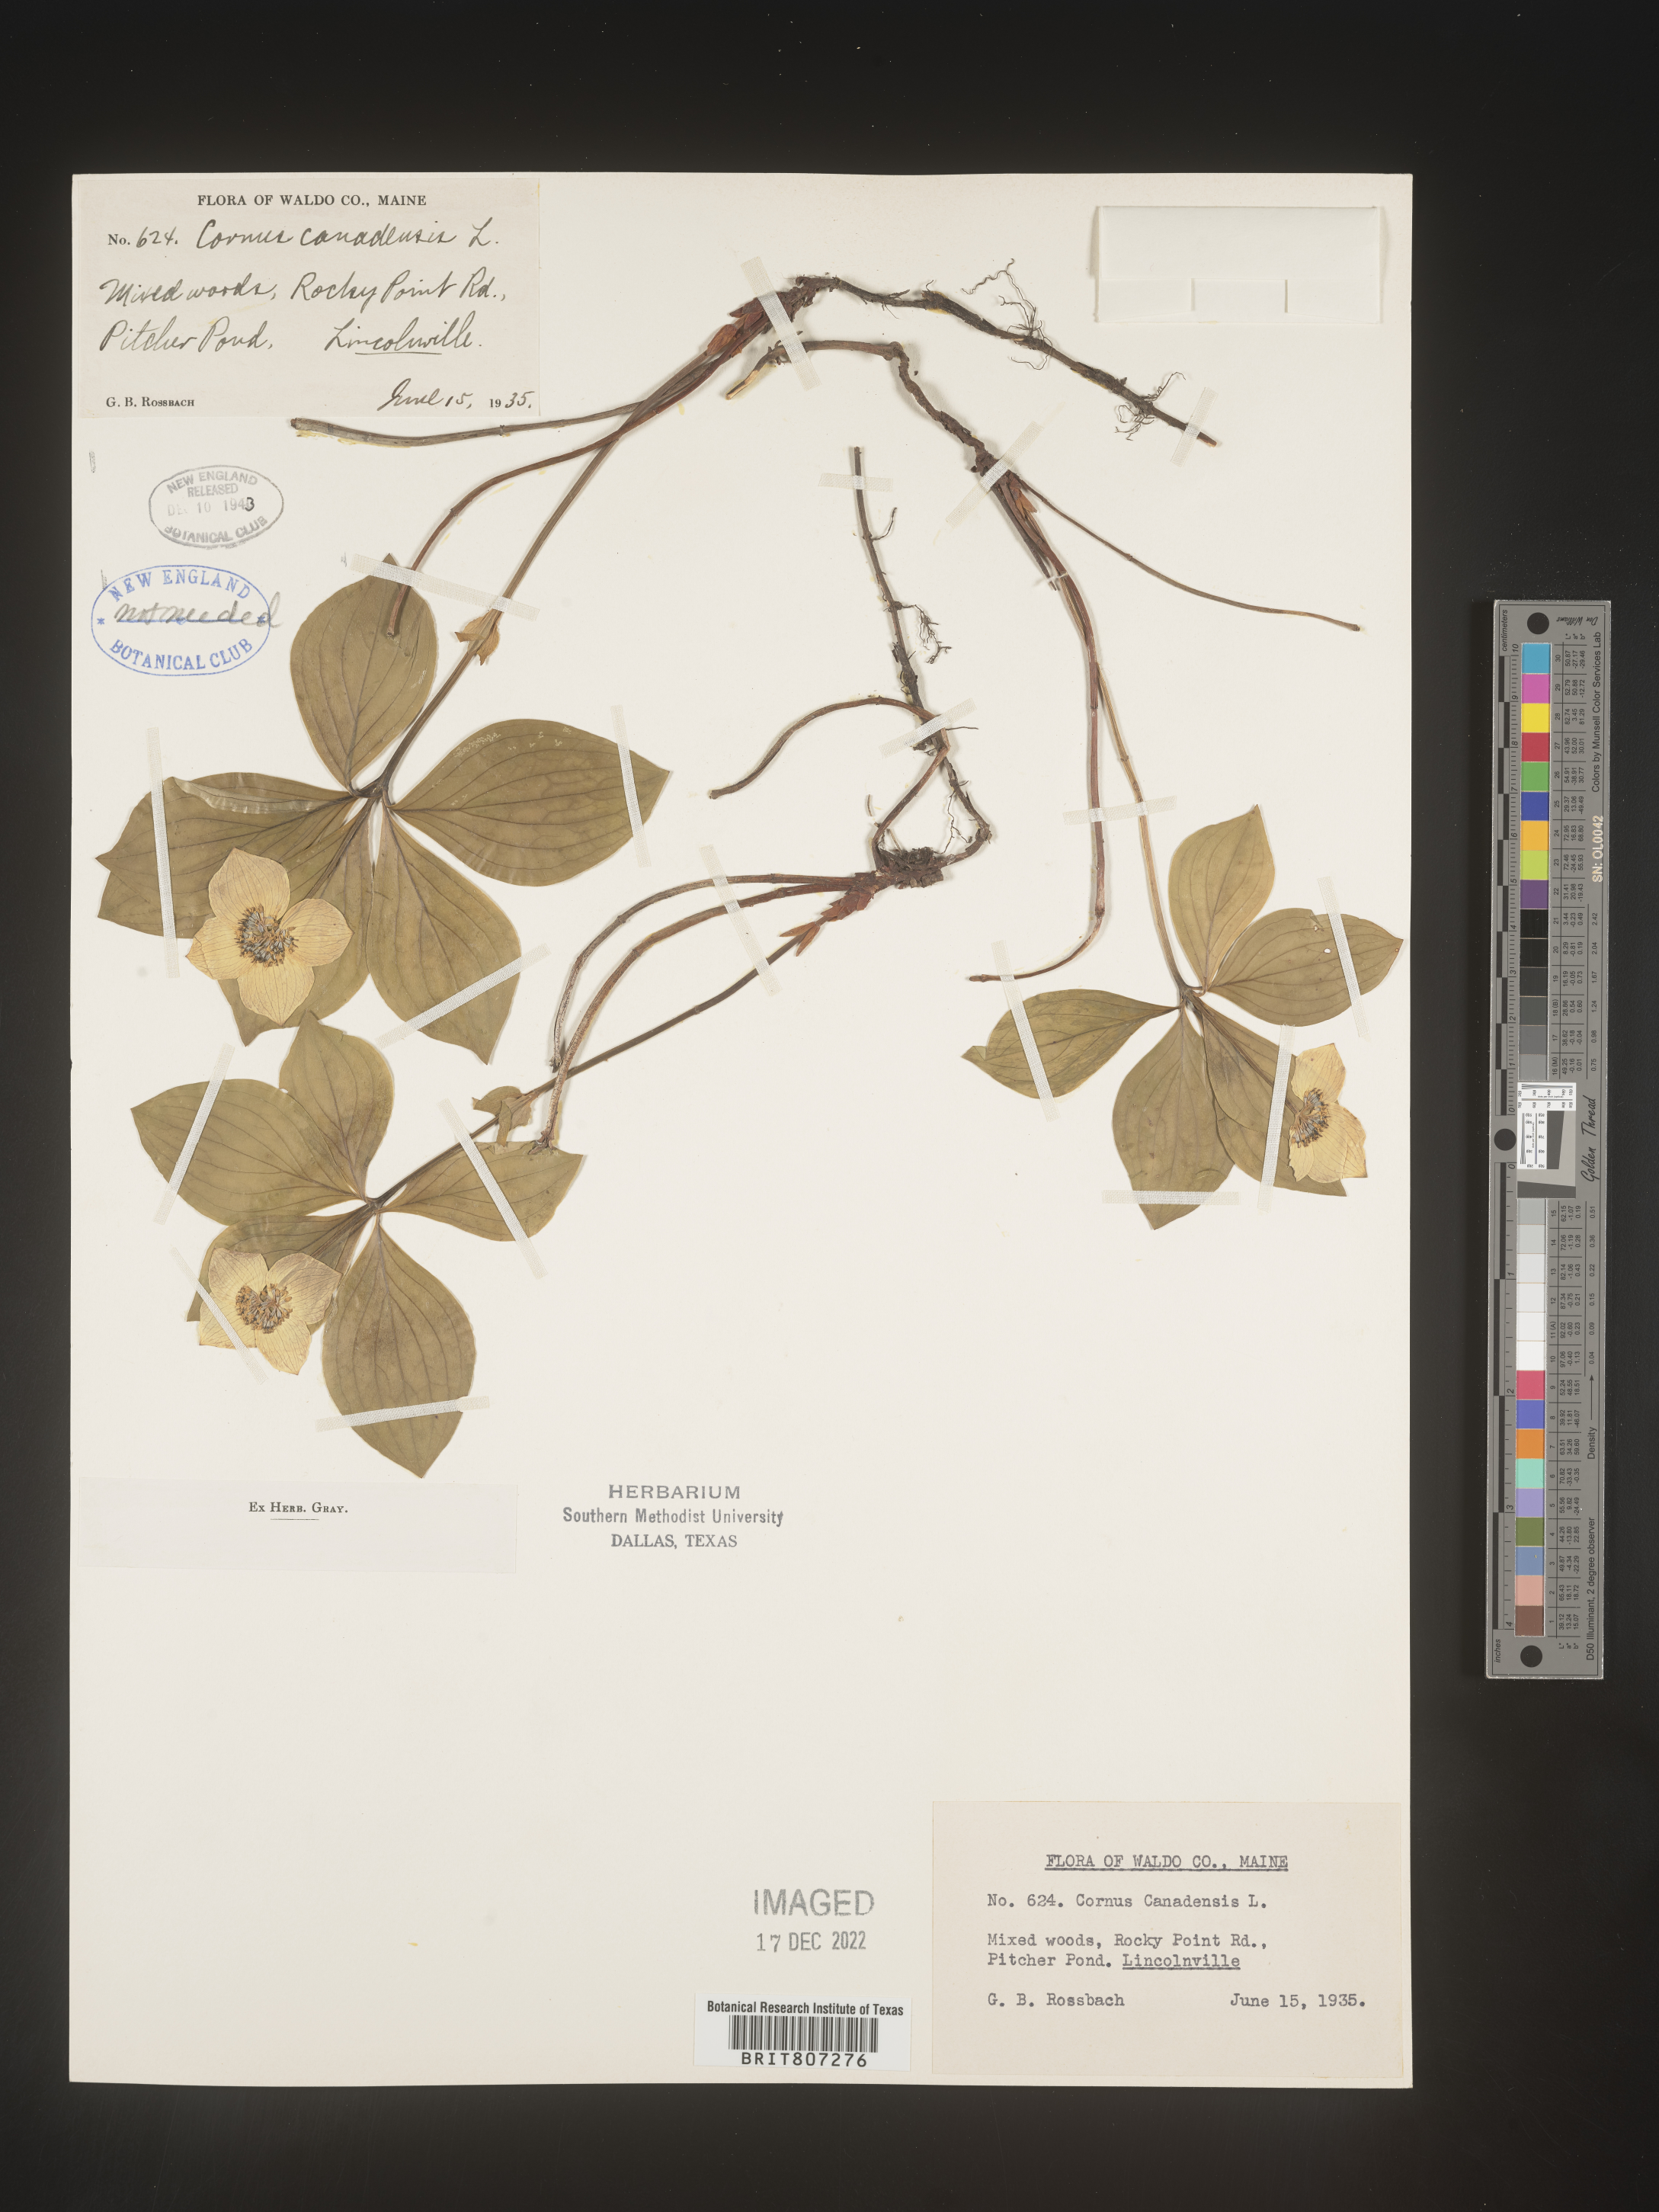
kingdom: Plantae
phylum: Tracheophyta
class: Magnoliopsida
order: Cornales
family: Cornaceae
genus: Cornus
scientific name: Cornus canadensis
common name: Creeping dogwood
